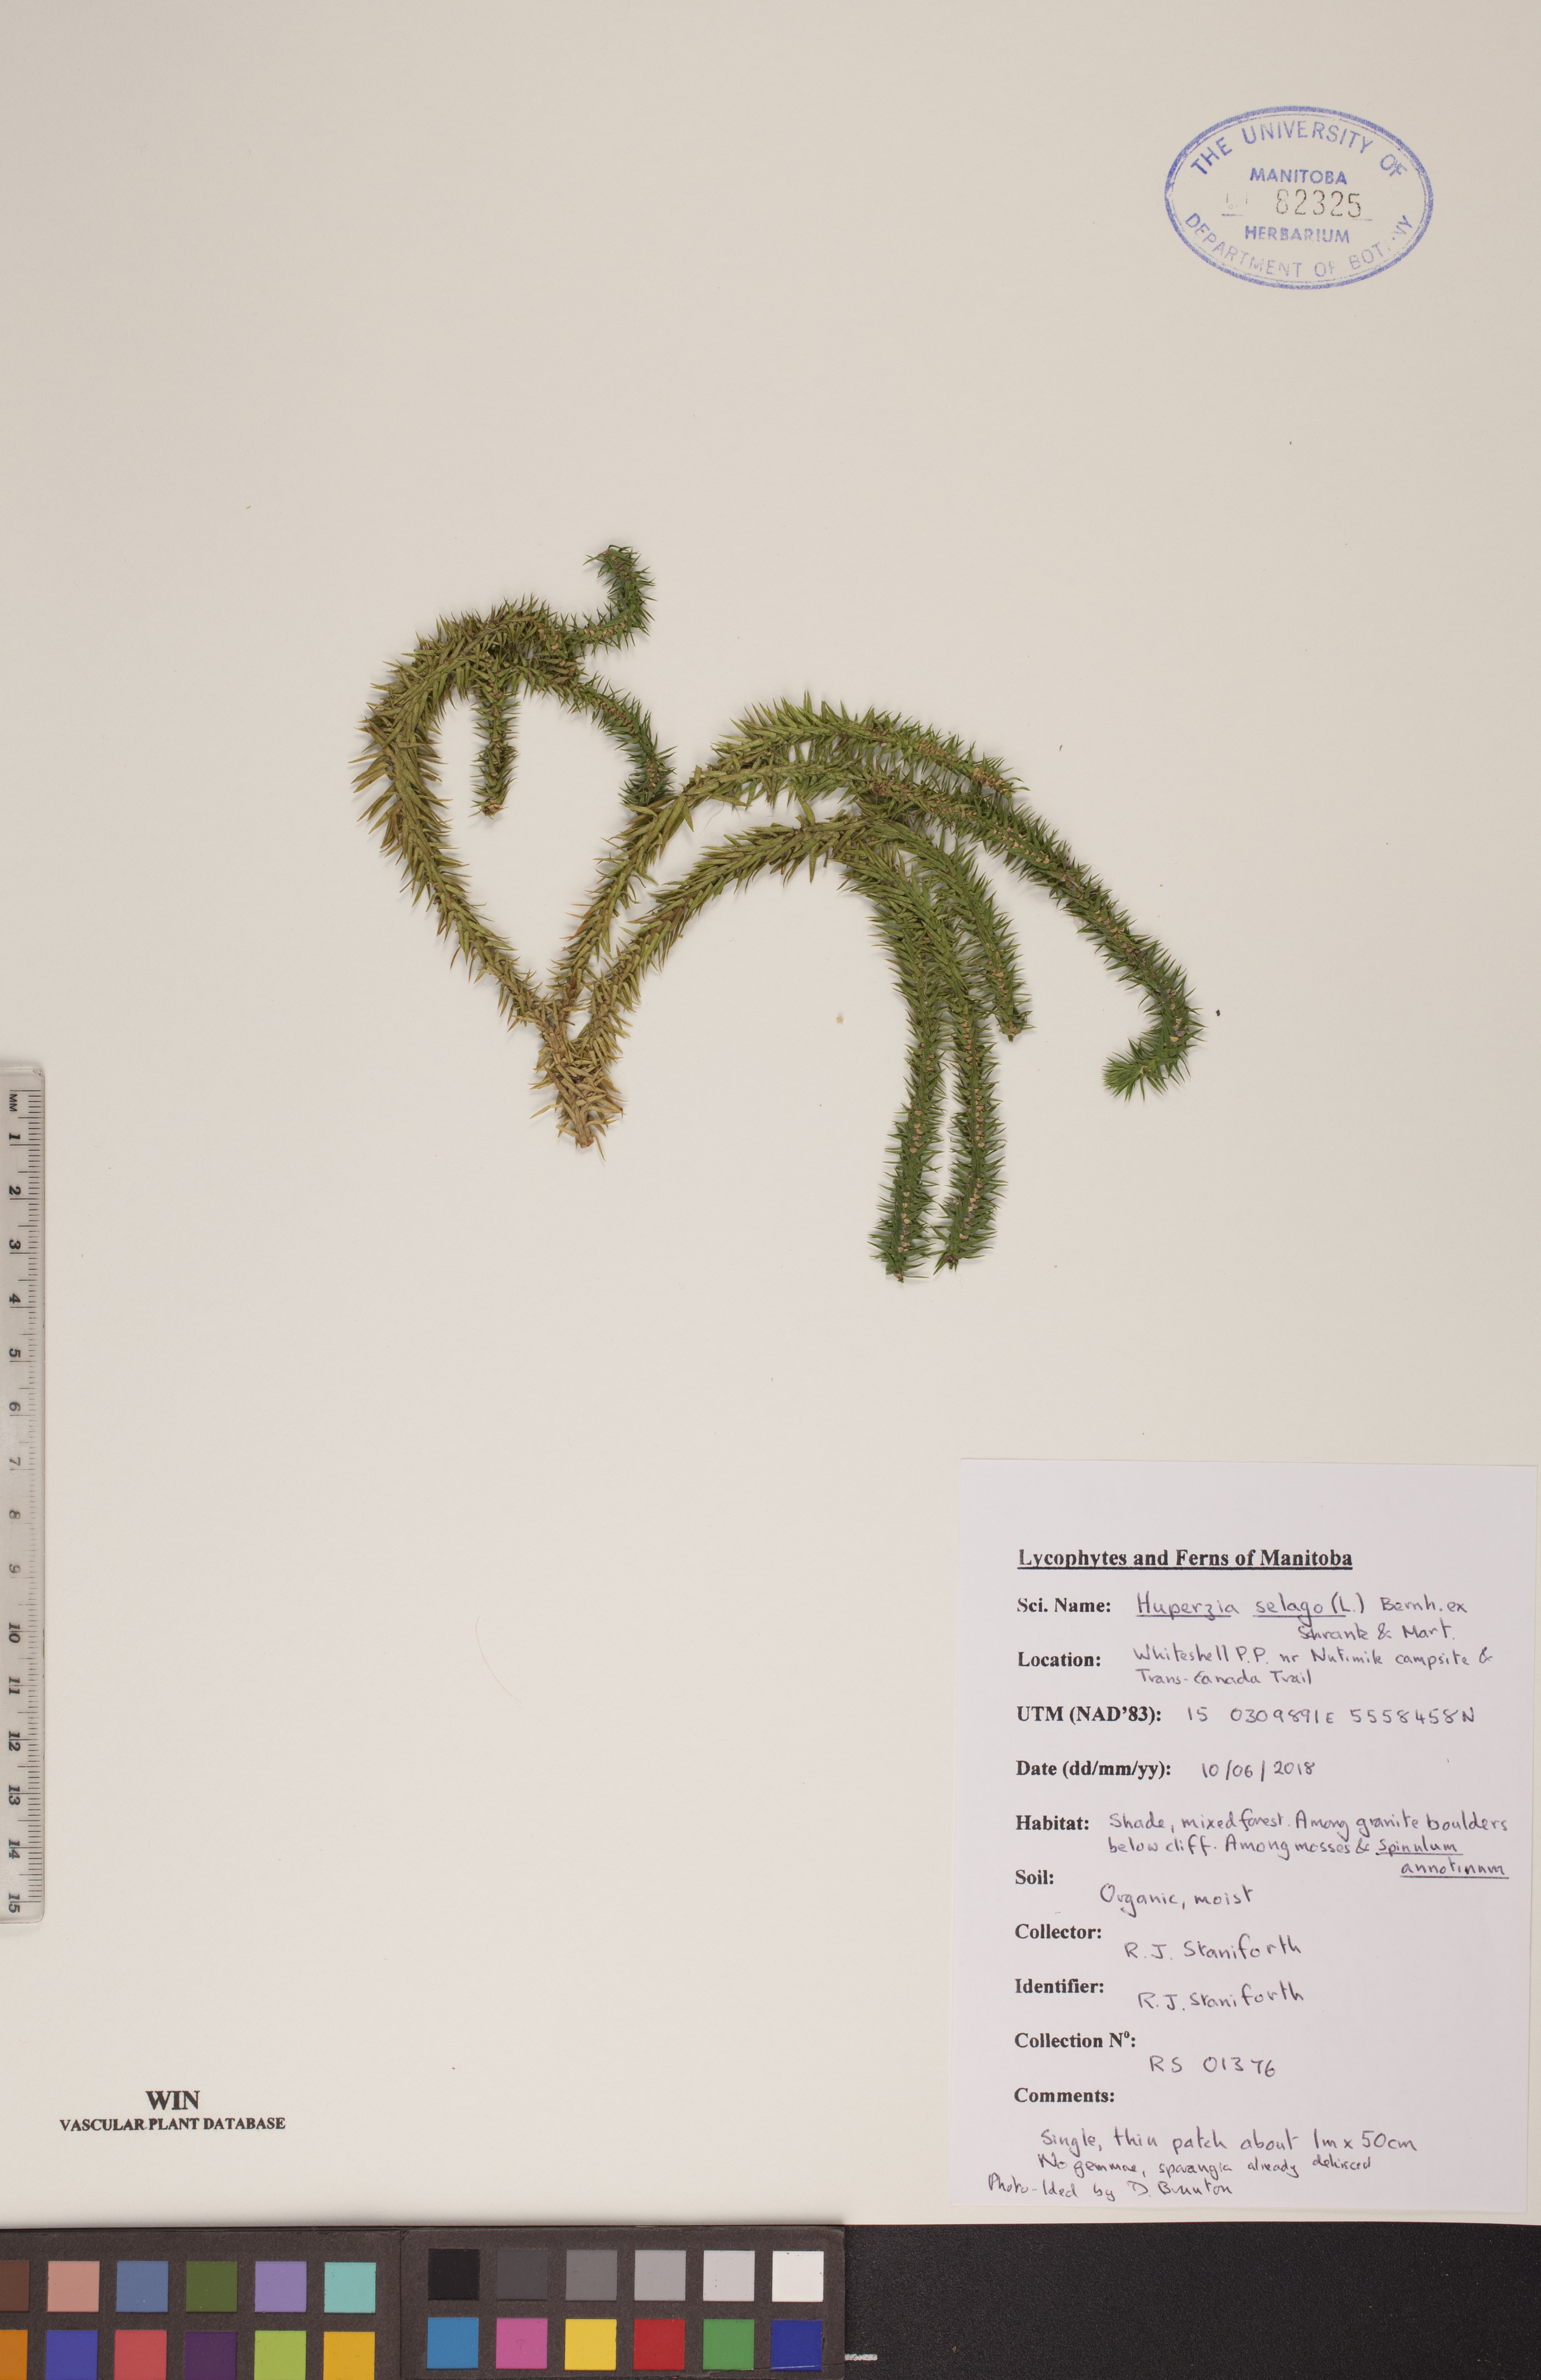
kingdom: Plantae
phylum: Tracheophyta
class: Lycopodiopsida
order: Lycopodiales
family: Lycopodiaceae
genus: Huperzia
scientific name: Huperzia selago
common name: Northern firmoss
